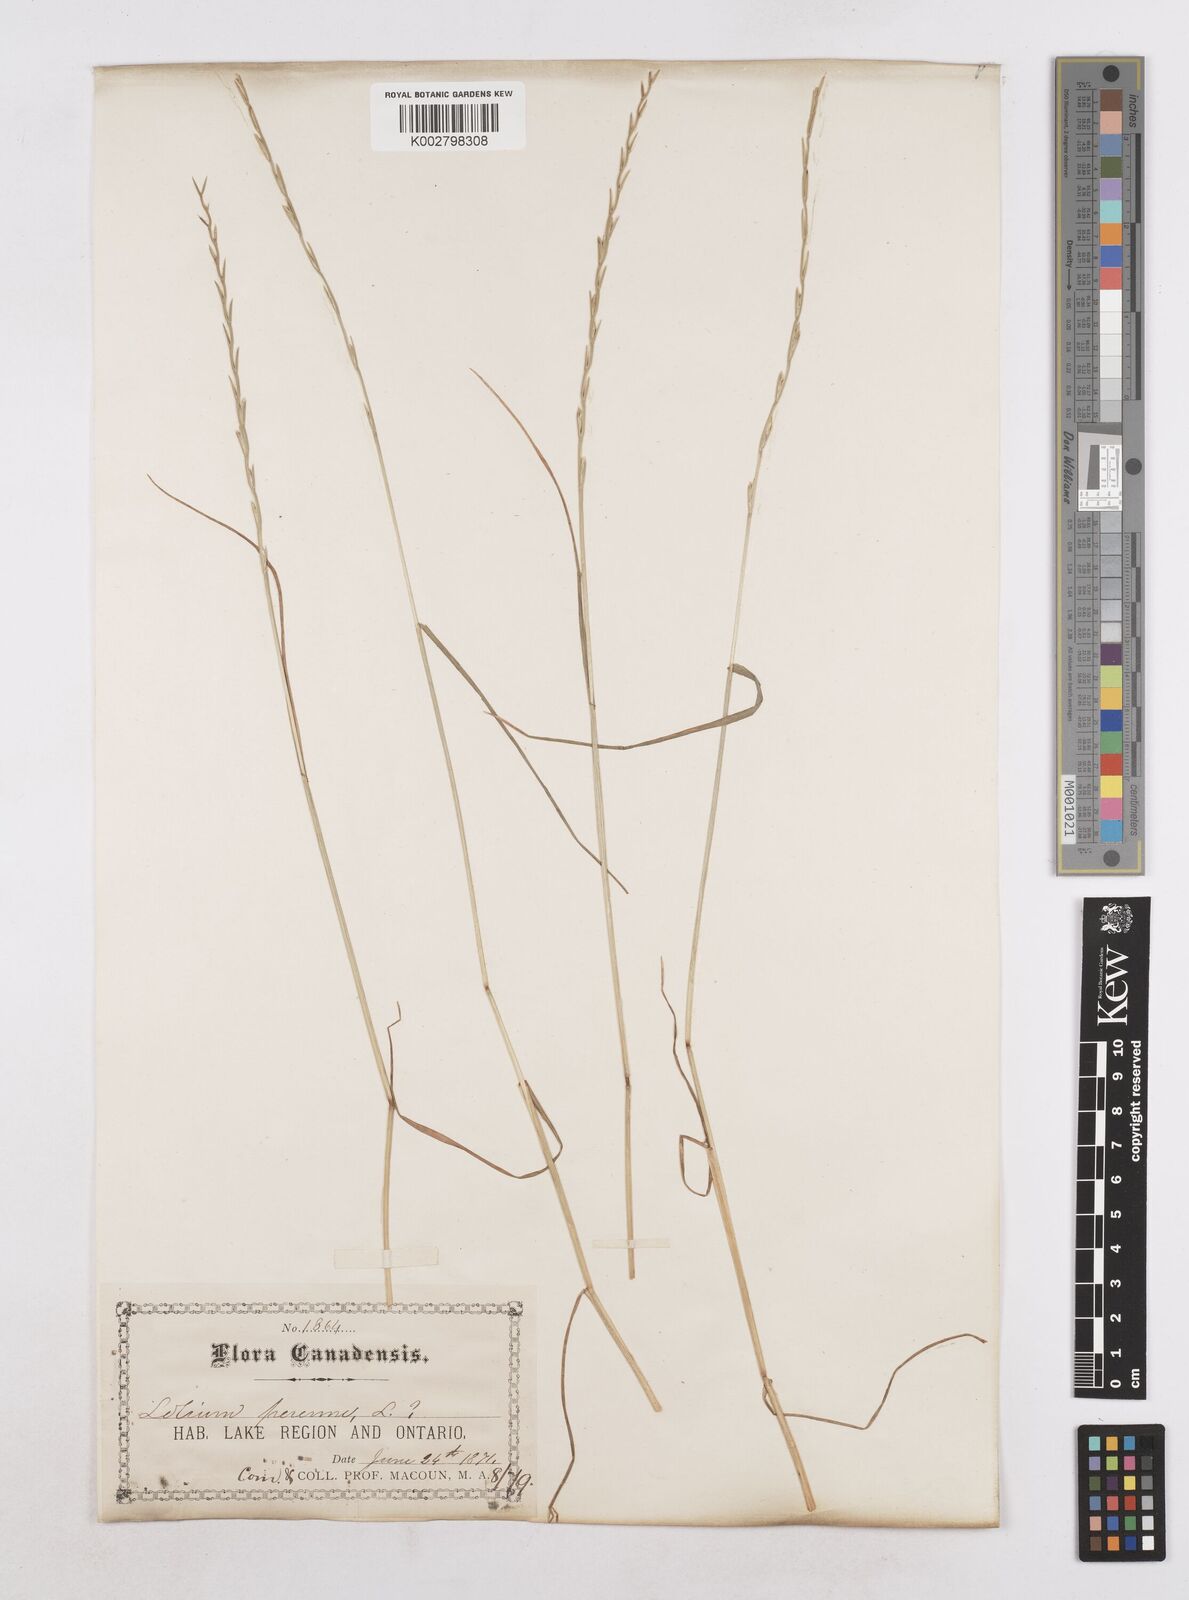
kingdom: Plantae
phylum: Tracheophyta
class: Liliopsida
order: Poales
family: Poaceae
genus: Lolium
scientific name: Lolium perenne
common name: Perennial ryegrass
